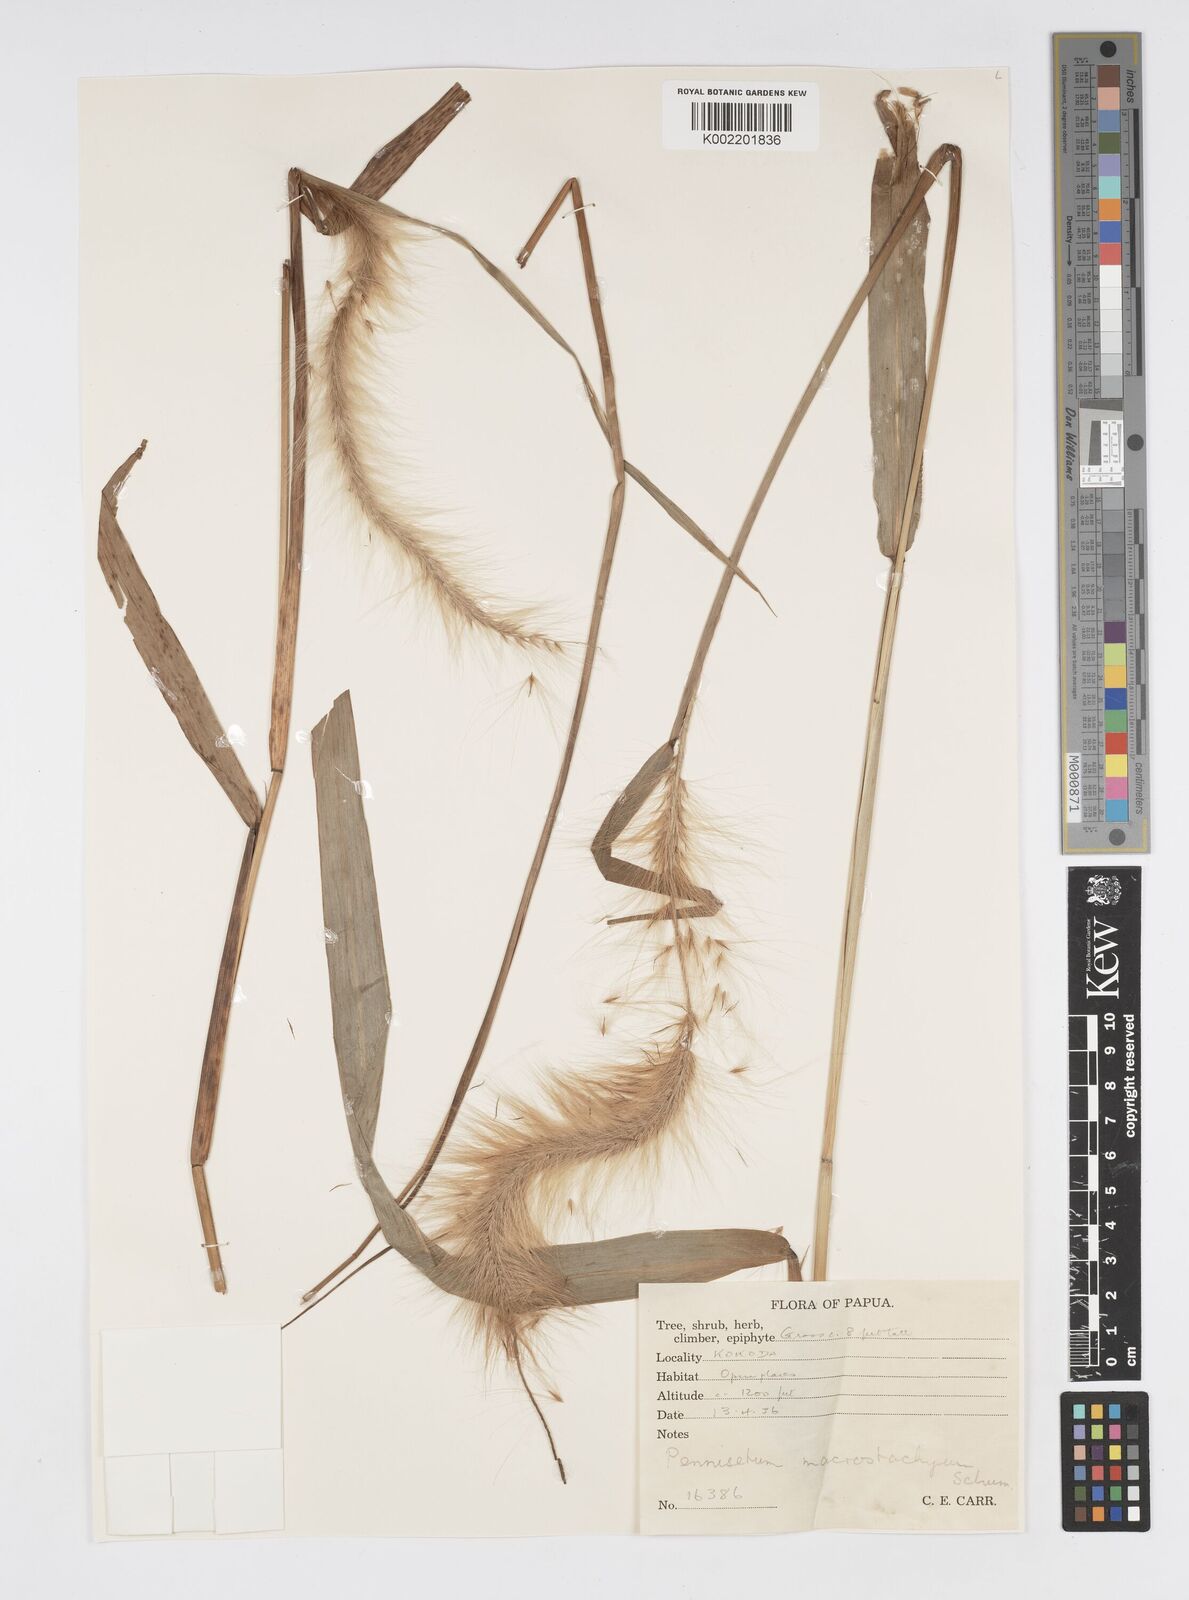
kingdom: Plantae
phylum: Tracheophyta
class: Liliopsida
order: Poales
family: Poaceae
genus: Cenchrus
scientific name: Cenchrus purpureus
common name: Elephant grass
